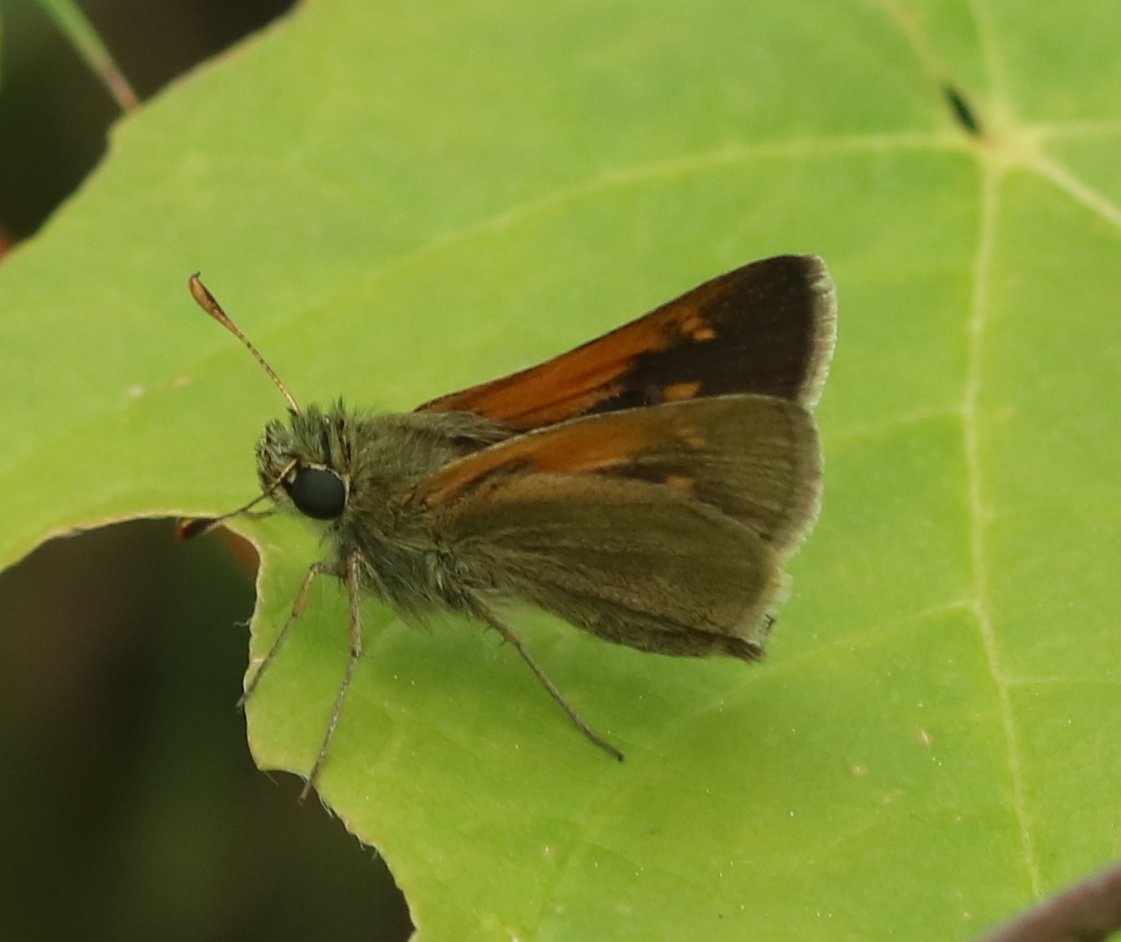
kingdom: Animalia
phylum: Arthropoda
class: Insecta
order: Lepidoptera
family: Hesperiidae
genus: Polites
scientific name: Polites themistocles
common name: Tawny-edged Skipper
